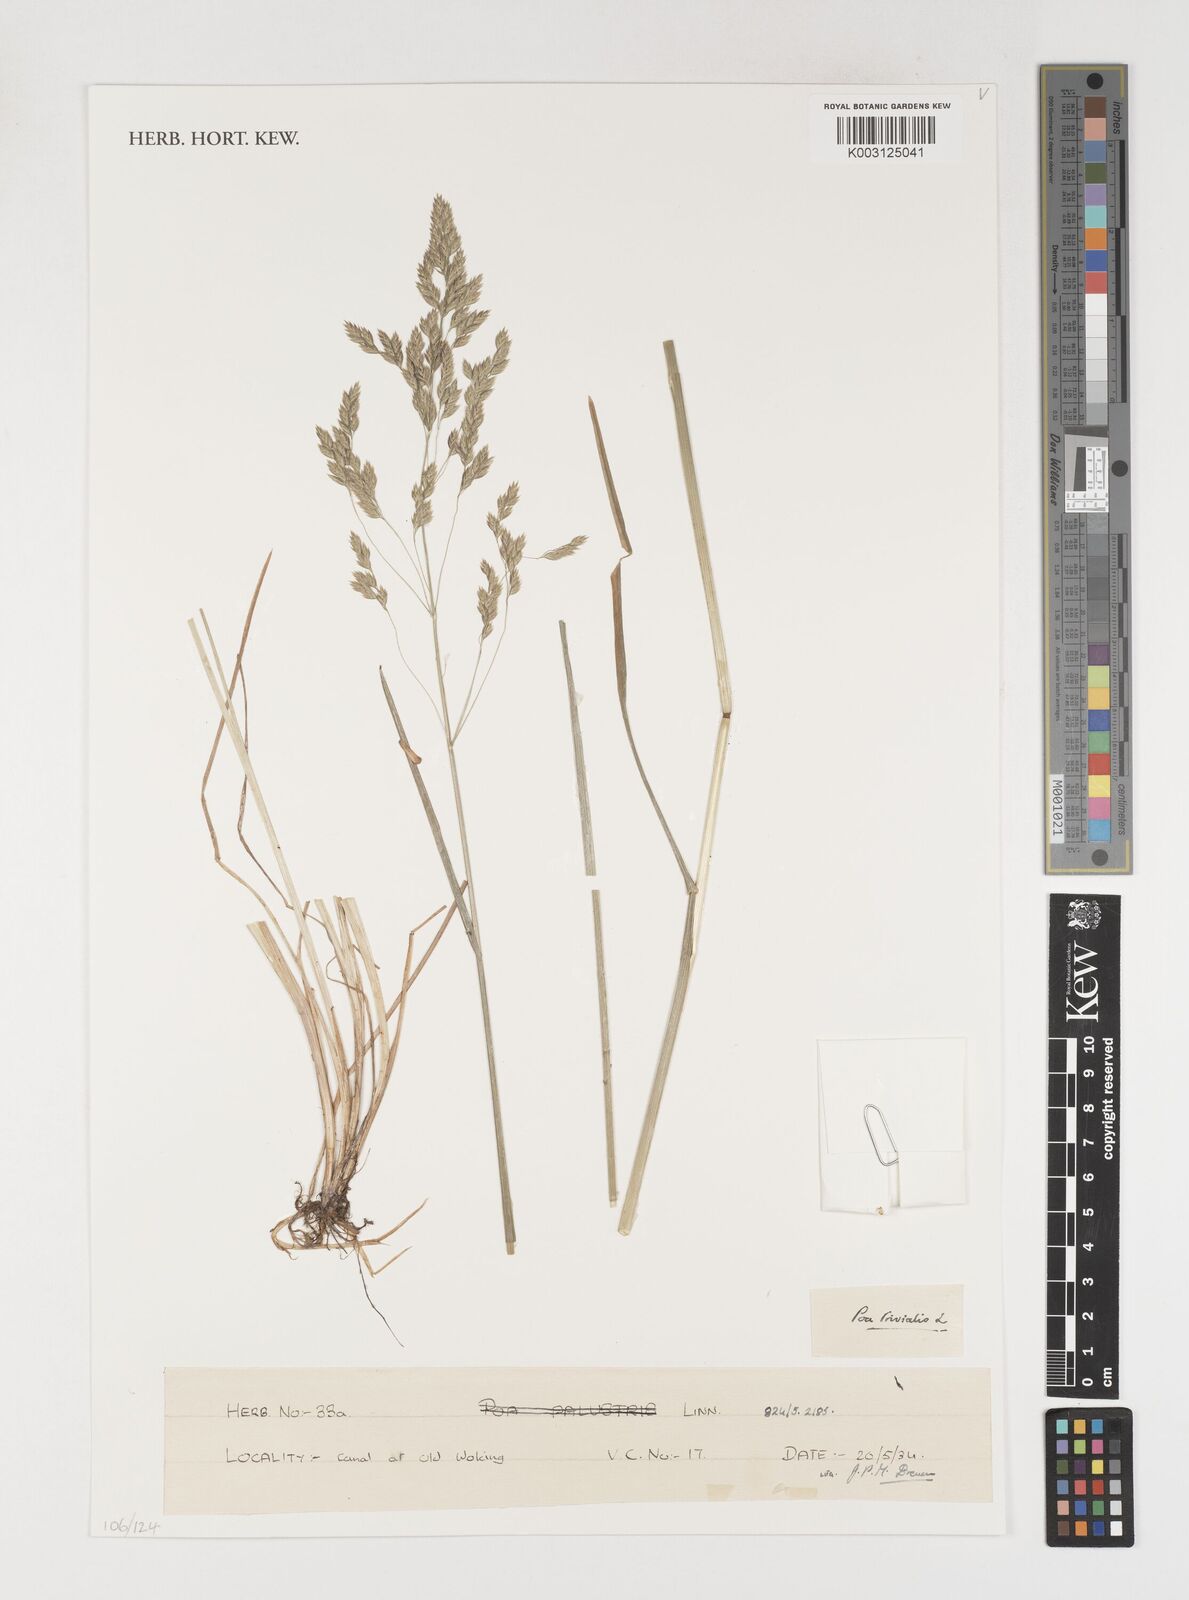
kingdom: Plantae
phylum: Tracheophyta
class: Liliopsida
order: Poales
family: Poaceae
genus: Poa
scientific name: Poa trivialis
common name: Rough bluegrass
